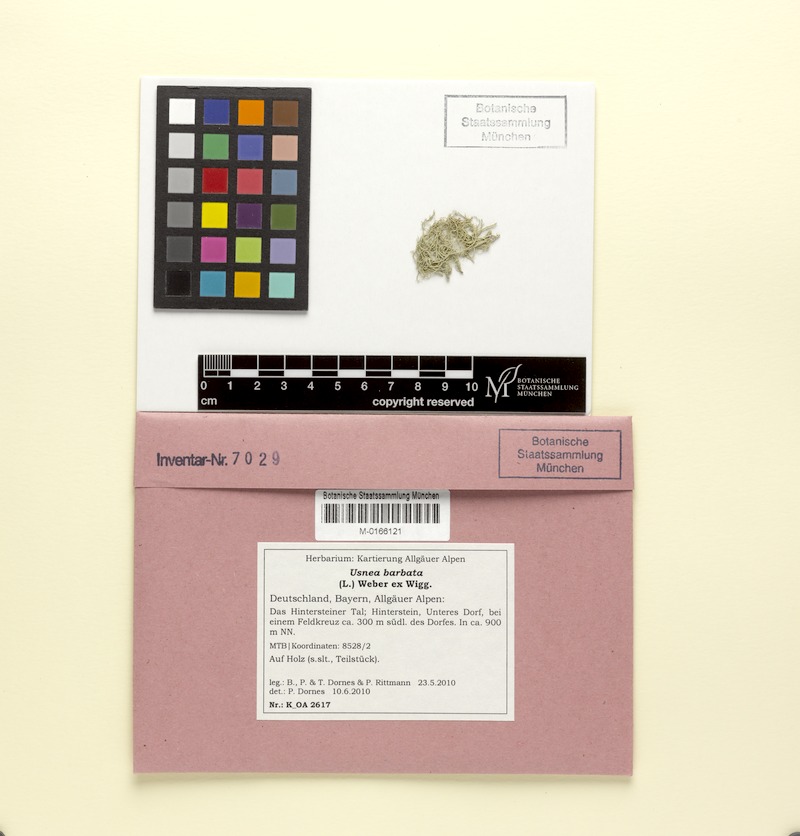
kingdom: Fungi
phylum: Ascomycota
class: Lecanoromycetes
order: Lecanorales
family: Parmeliaceae
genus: Usnea
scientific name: Usnea barbata
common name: Old man's beard lichen
